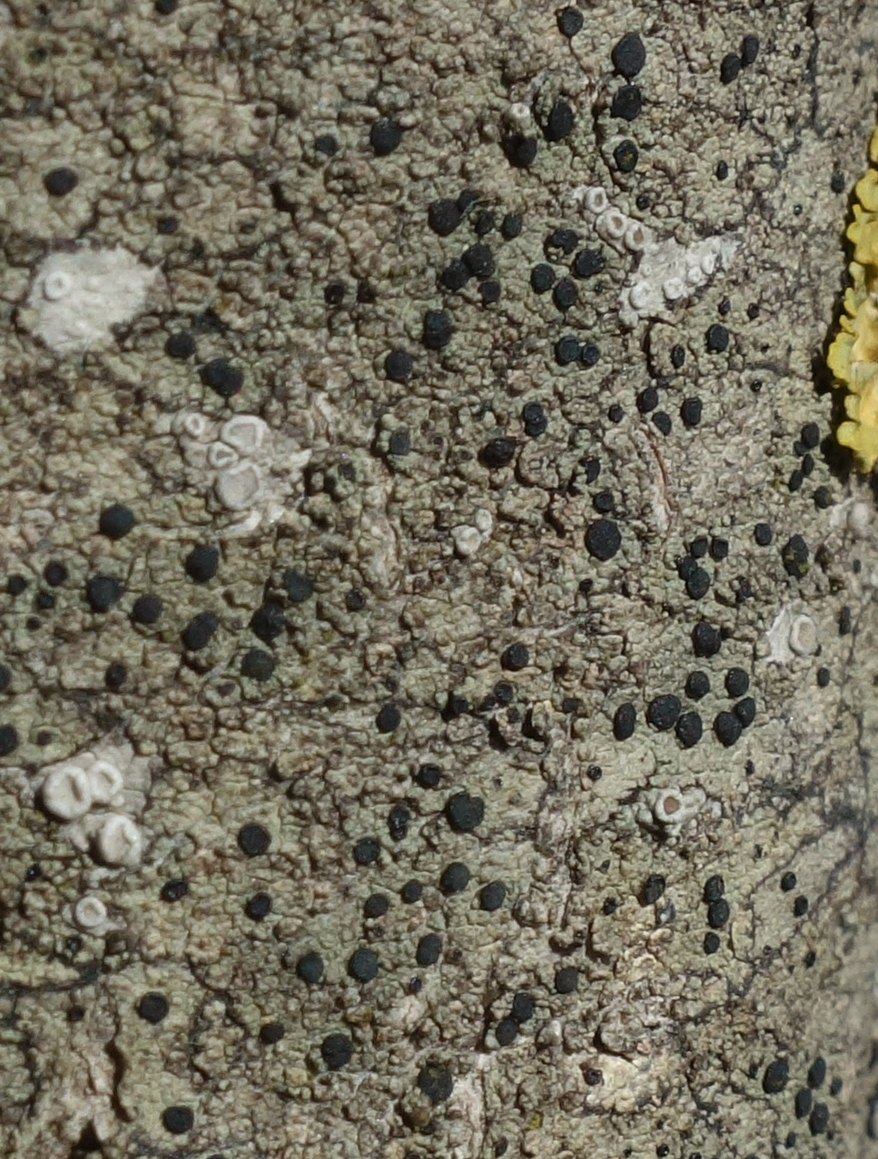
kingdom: Fungi
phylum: Ascomycota
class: Lecanoromycetes
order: Lecanorales
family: Lecanoraceae
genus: Lecidella
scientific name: Lecidella elaeochroma
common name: grågrøn skivelav
